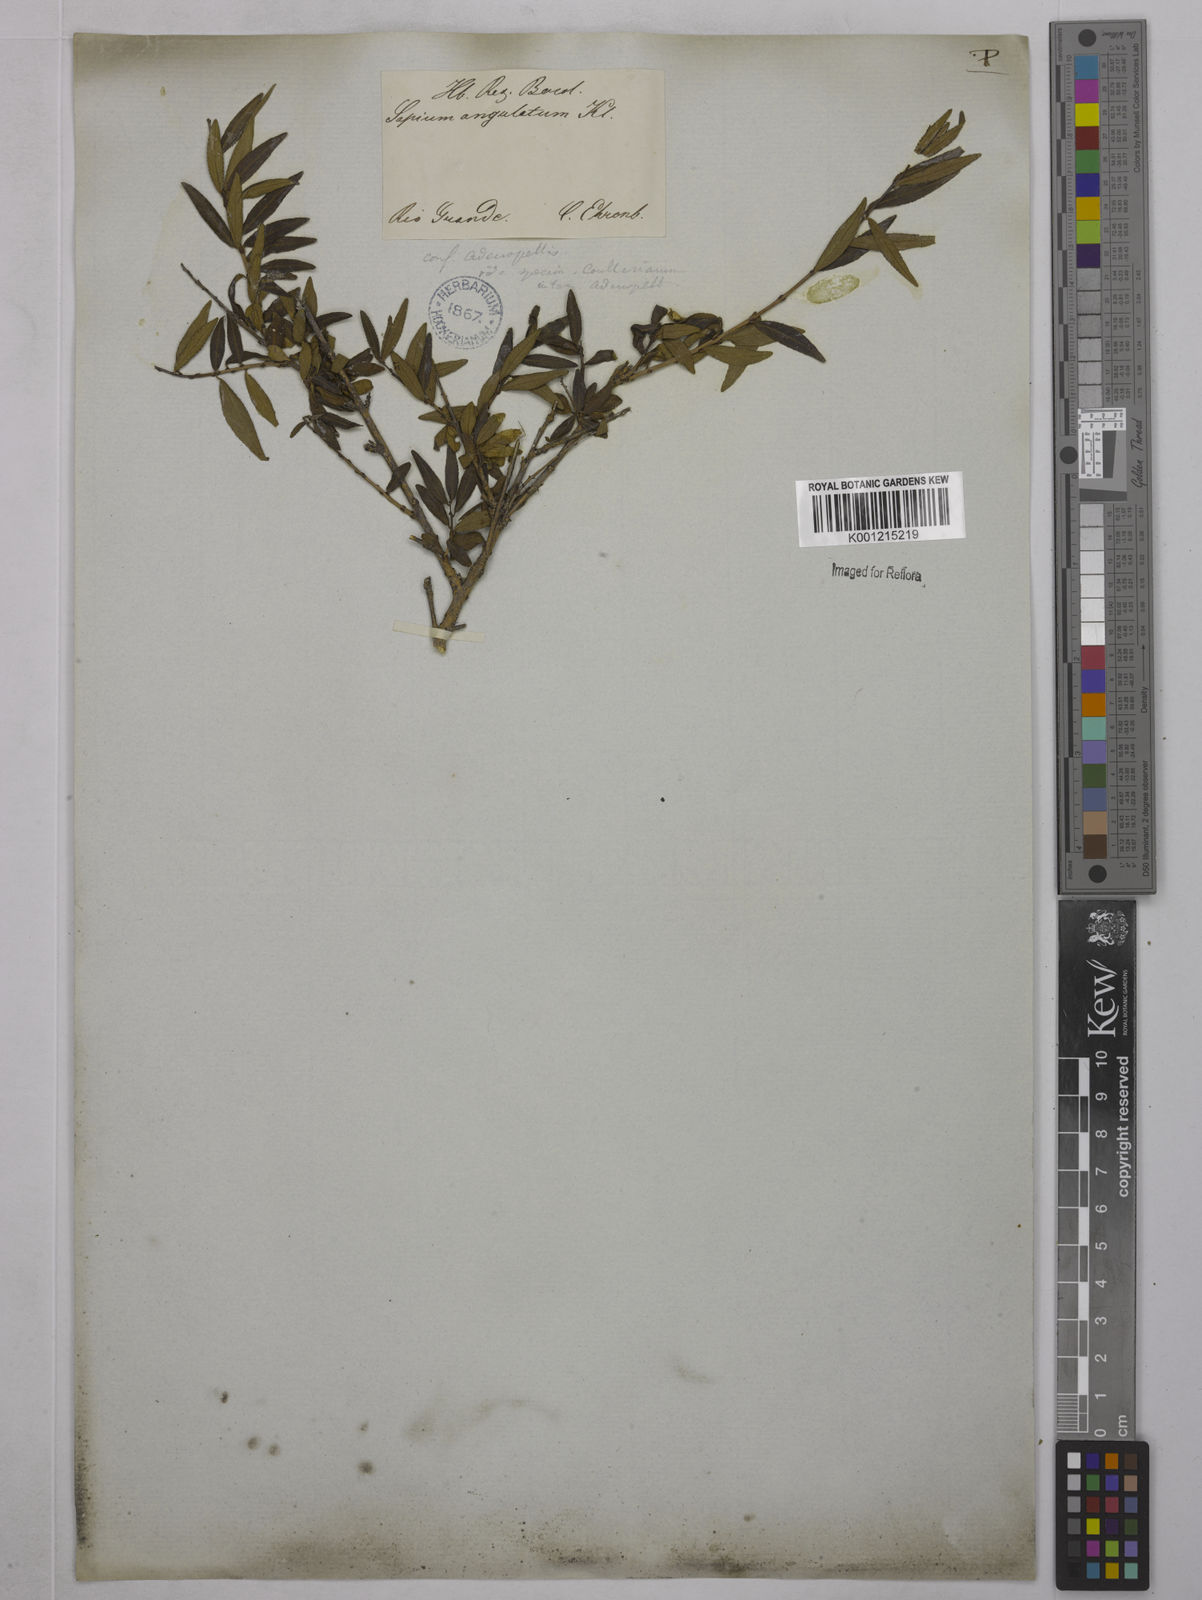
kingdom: Plantae
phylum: Tracheophyta
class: Magnoliopsida
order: Malpighiales
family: Euphorbiaceae
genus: Stillingia
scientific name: Stillingia
